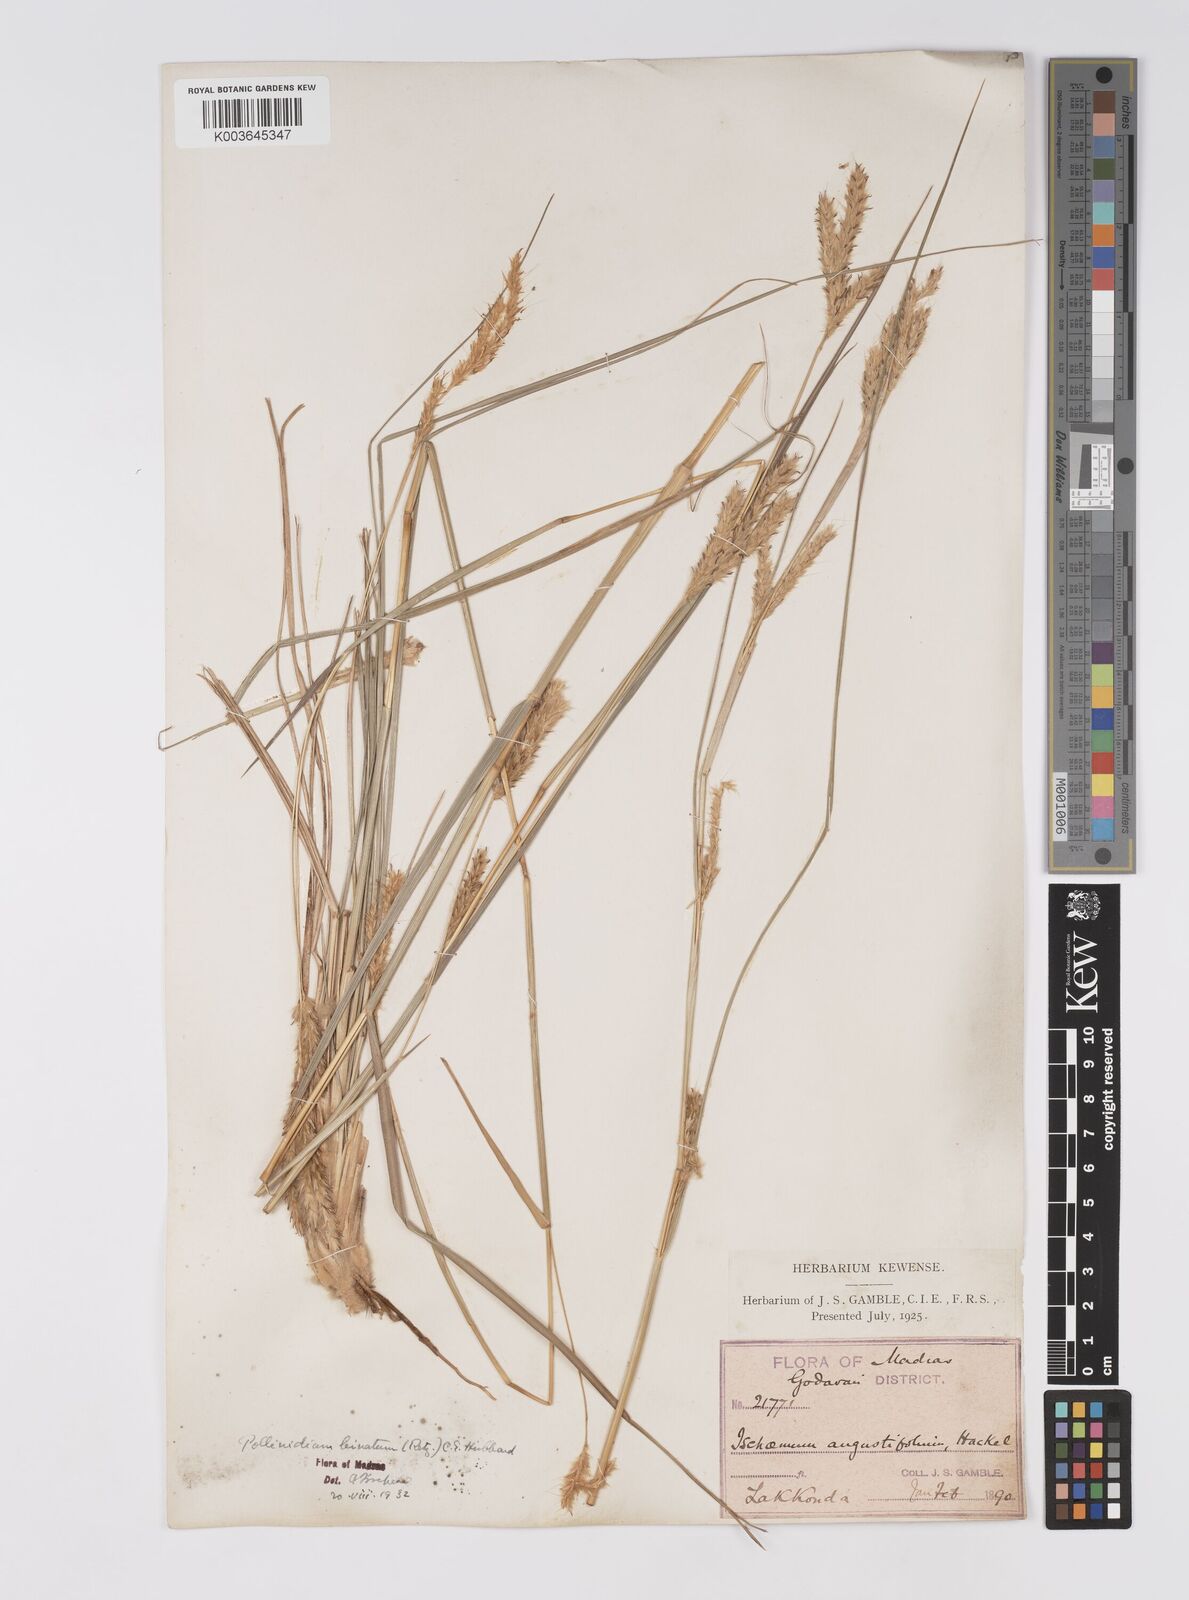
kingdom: Plantae
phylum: Tracheophyta
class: Liliopsida
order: Poales
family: Poaceae
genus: Eulaliopsis
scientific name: Eulaliopsis binata
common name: Baib grass
